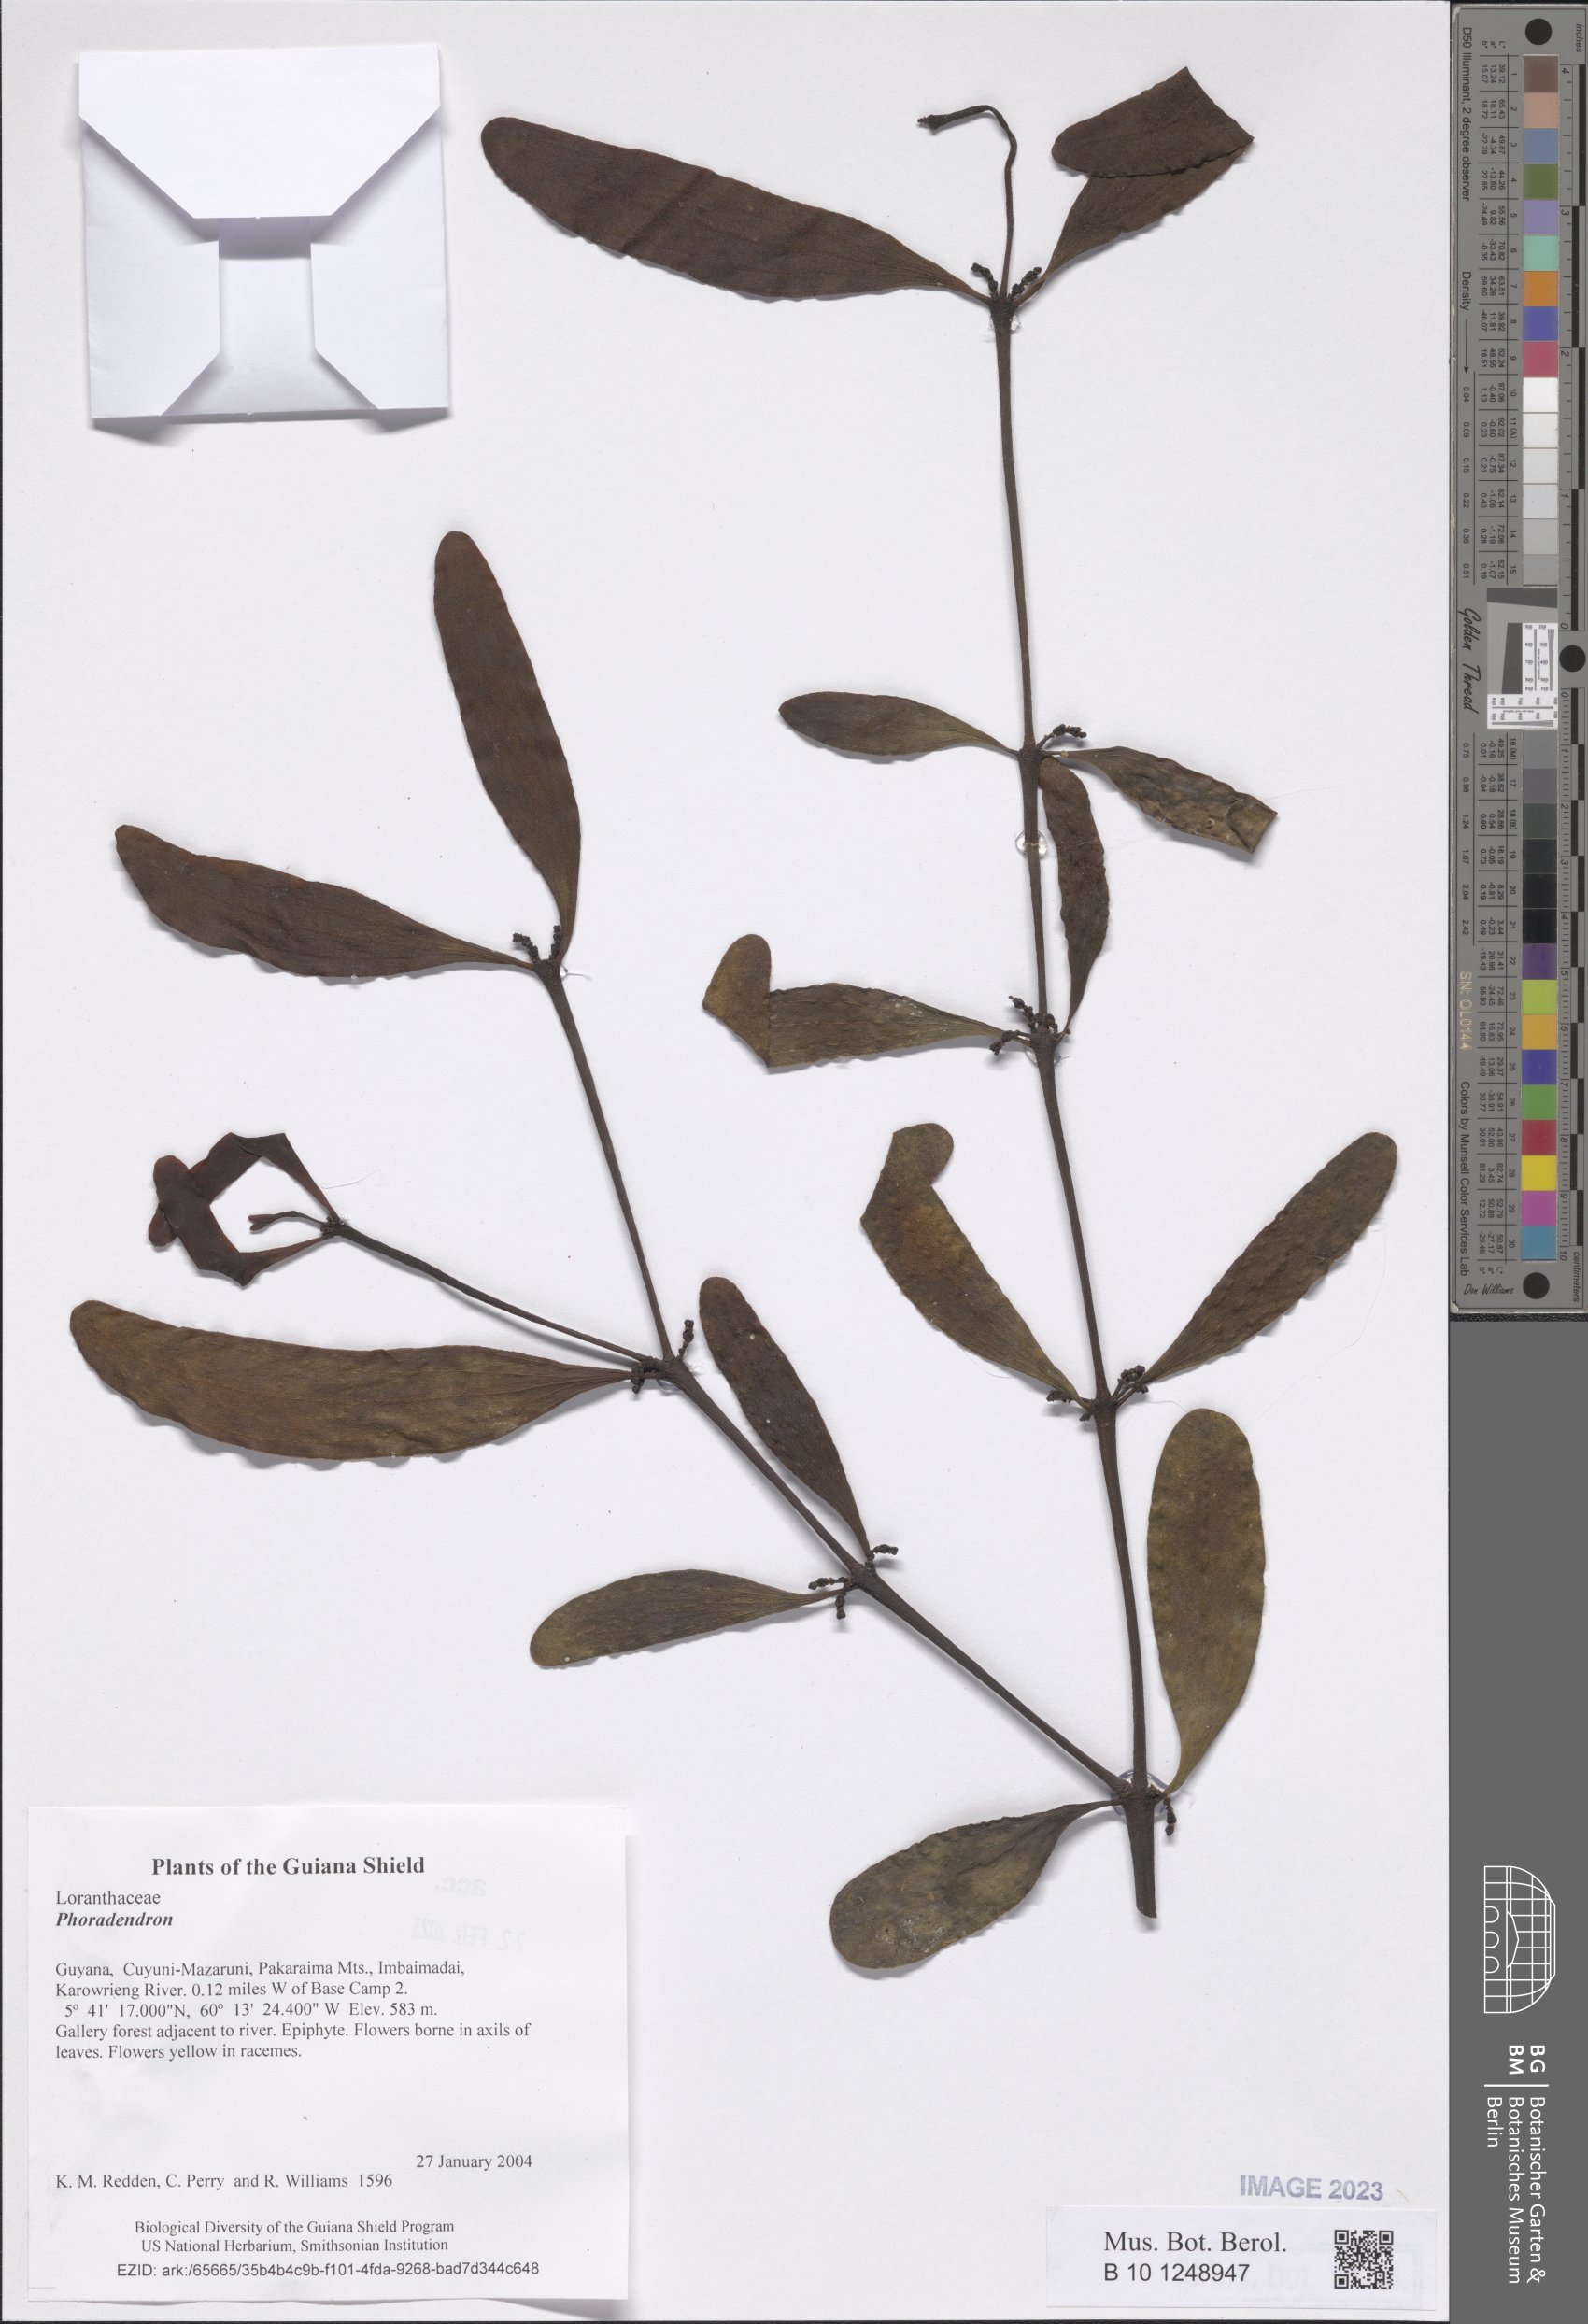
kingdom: Plantae
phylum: Tracheophyta
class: Magnoliopsida
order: Santalales
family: Viscaceae
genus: Phoradendron
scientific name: Phoradendron
